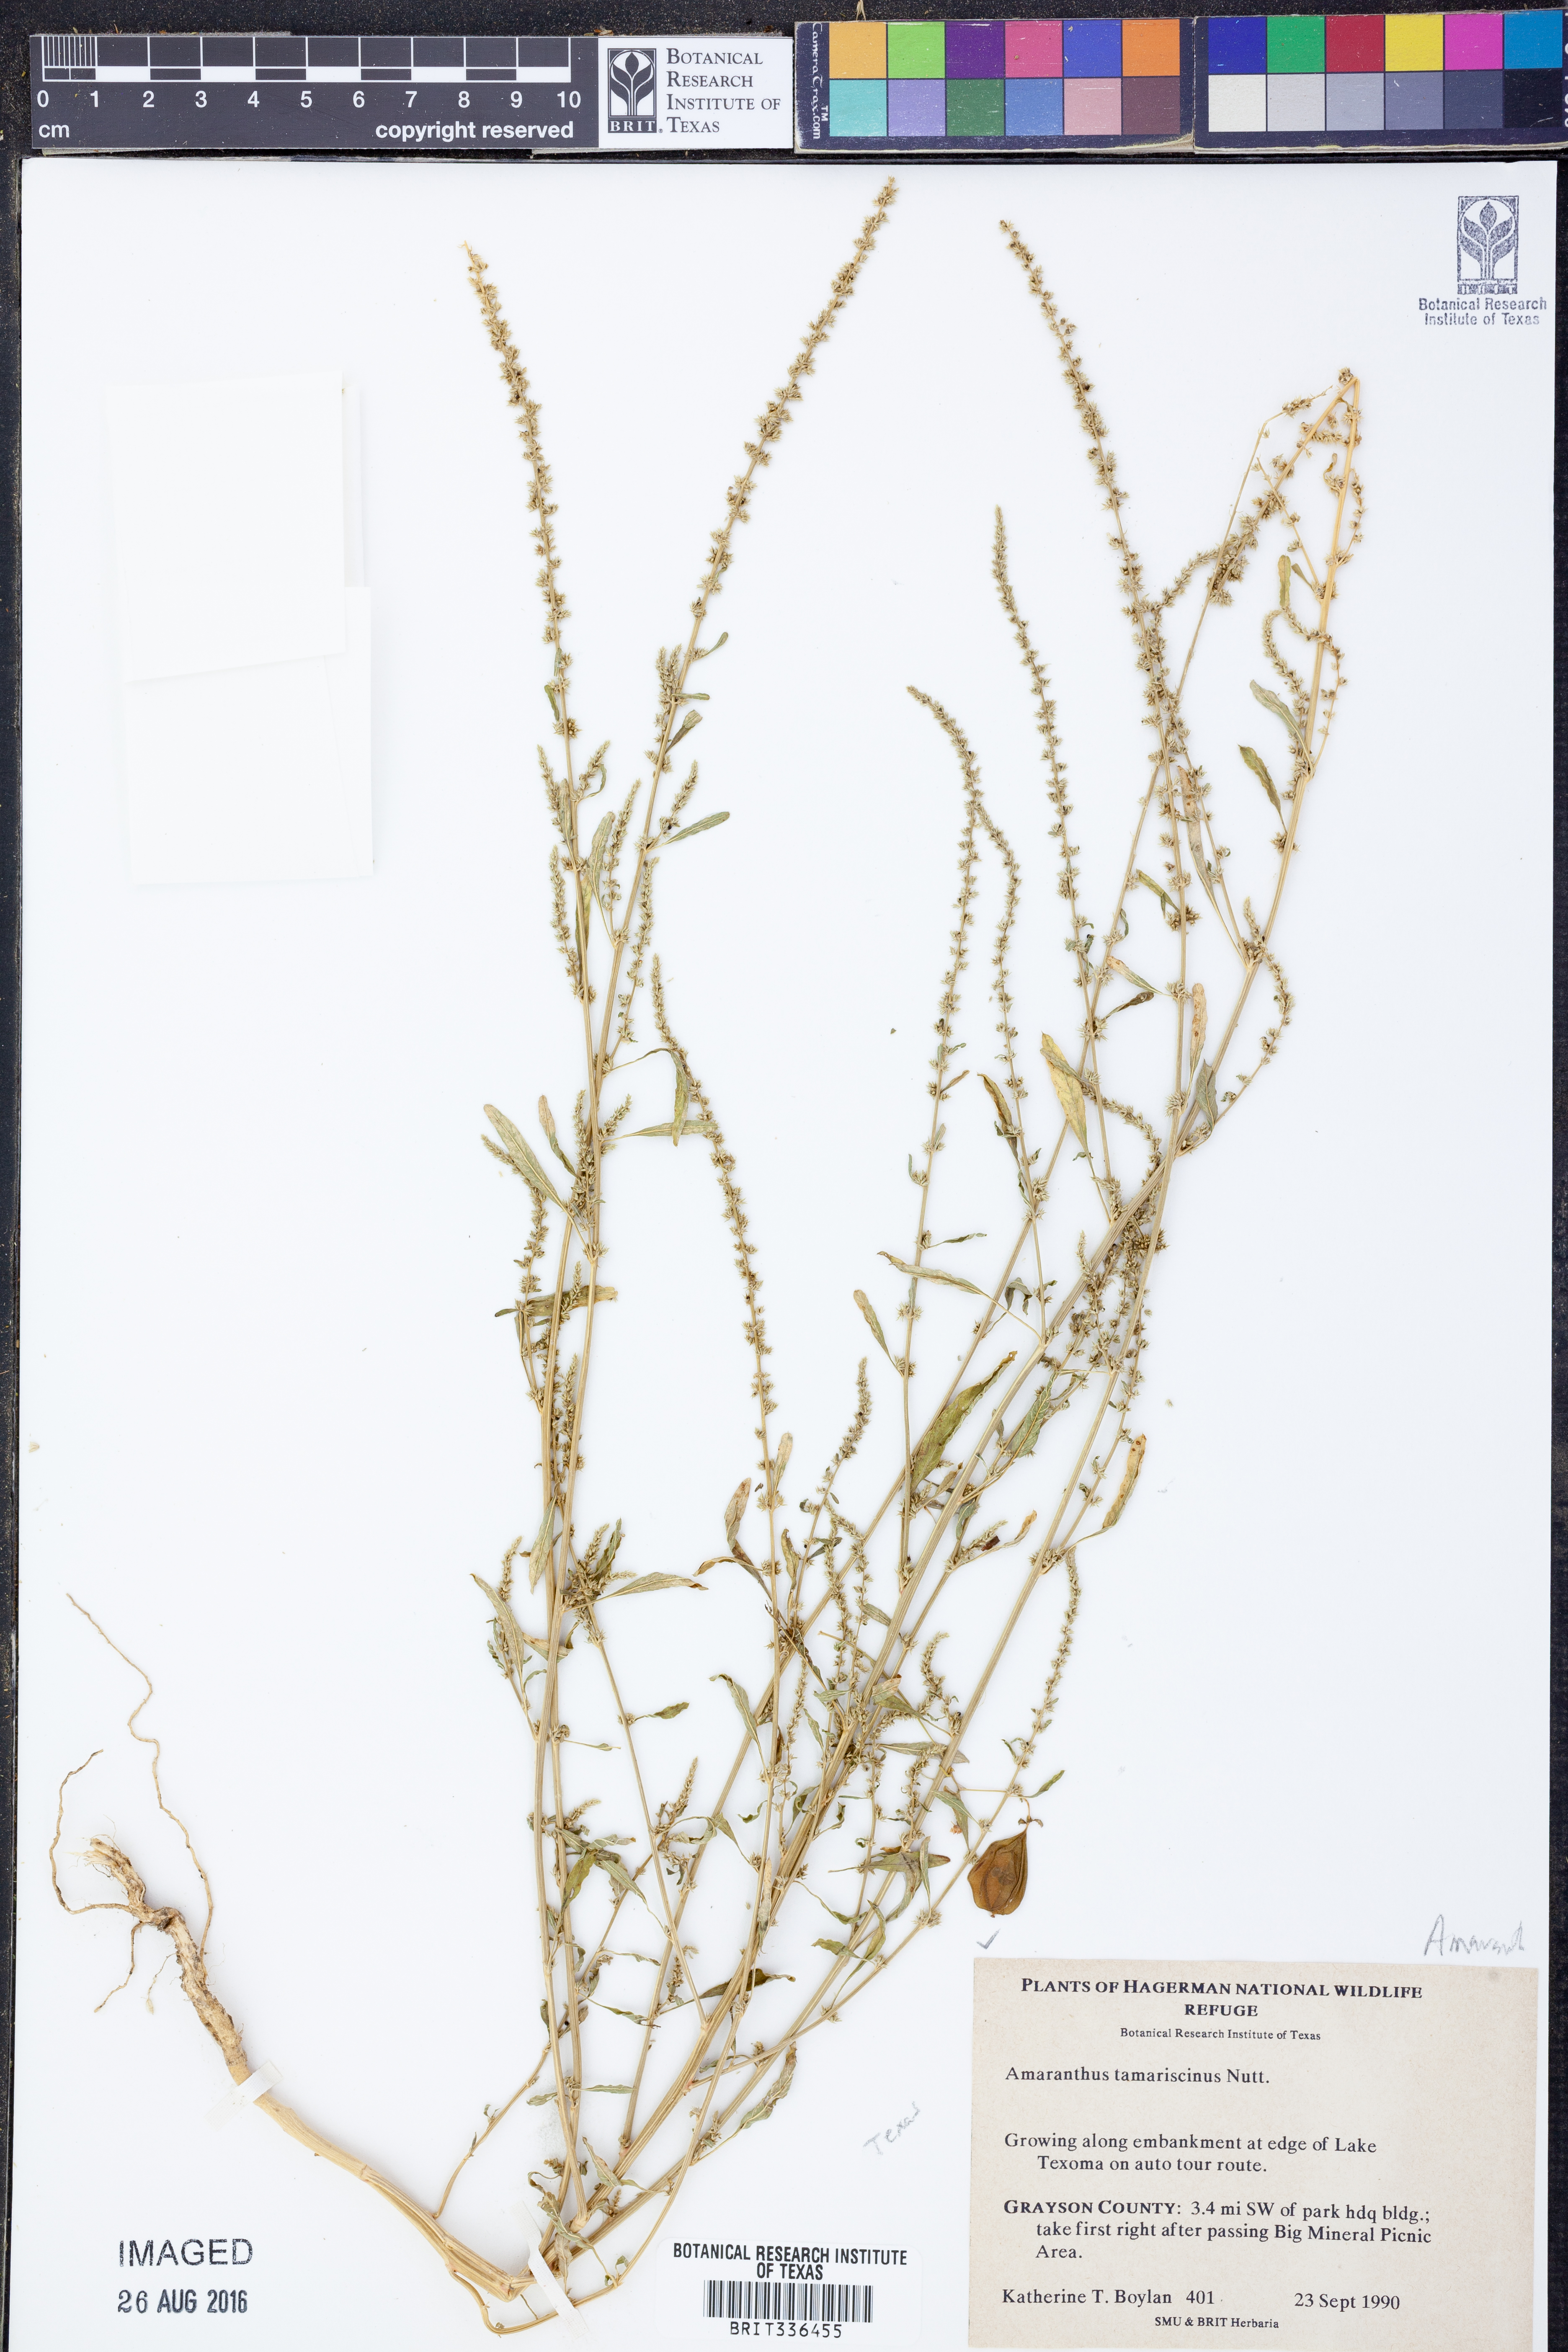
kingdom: Plantae
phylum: Tracheophyta
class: Magnoliopsida
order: Caryophyllales
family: Amaranthaceae
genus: Amaranthus
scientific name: Amaranthus tamariscinus
